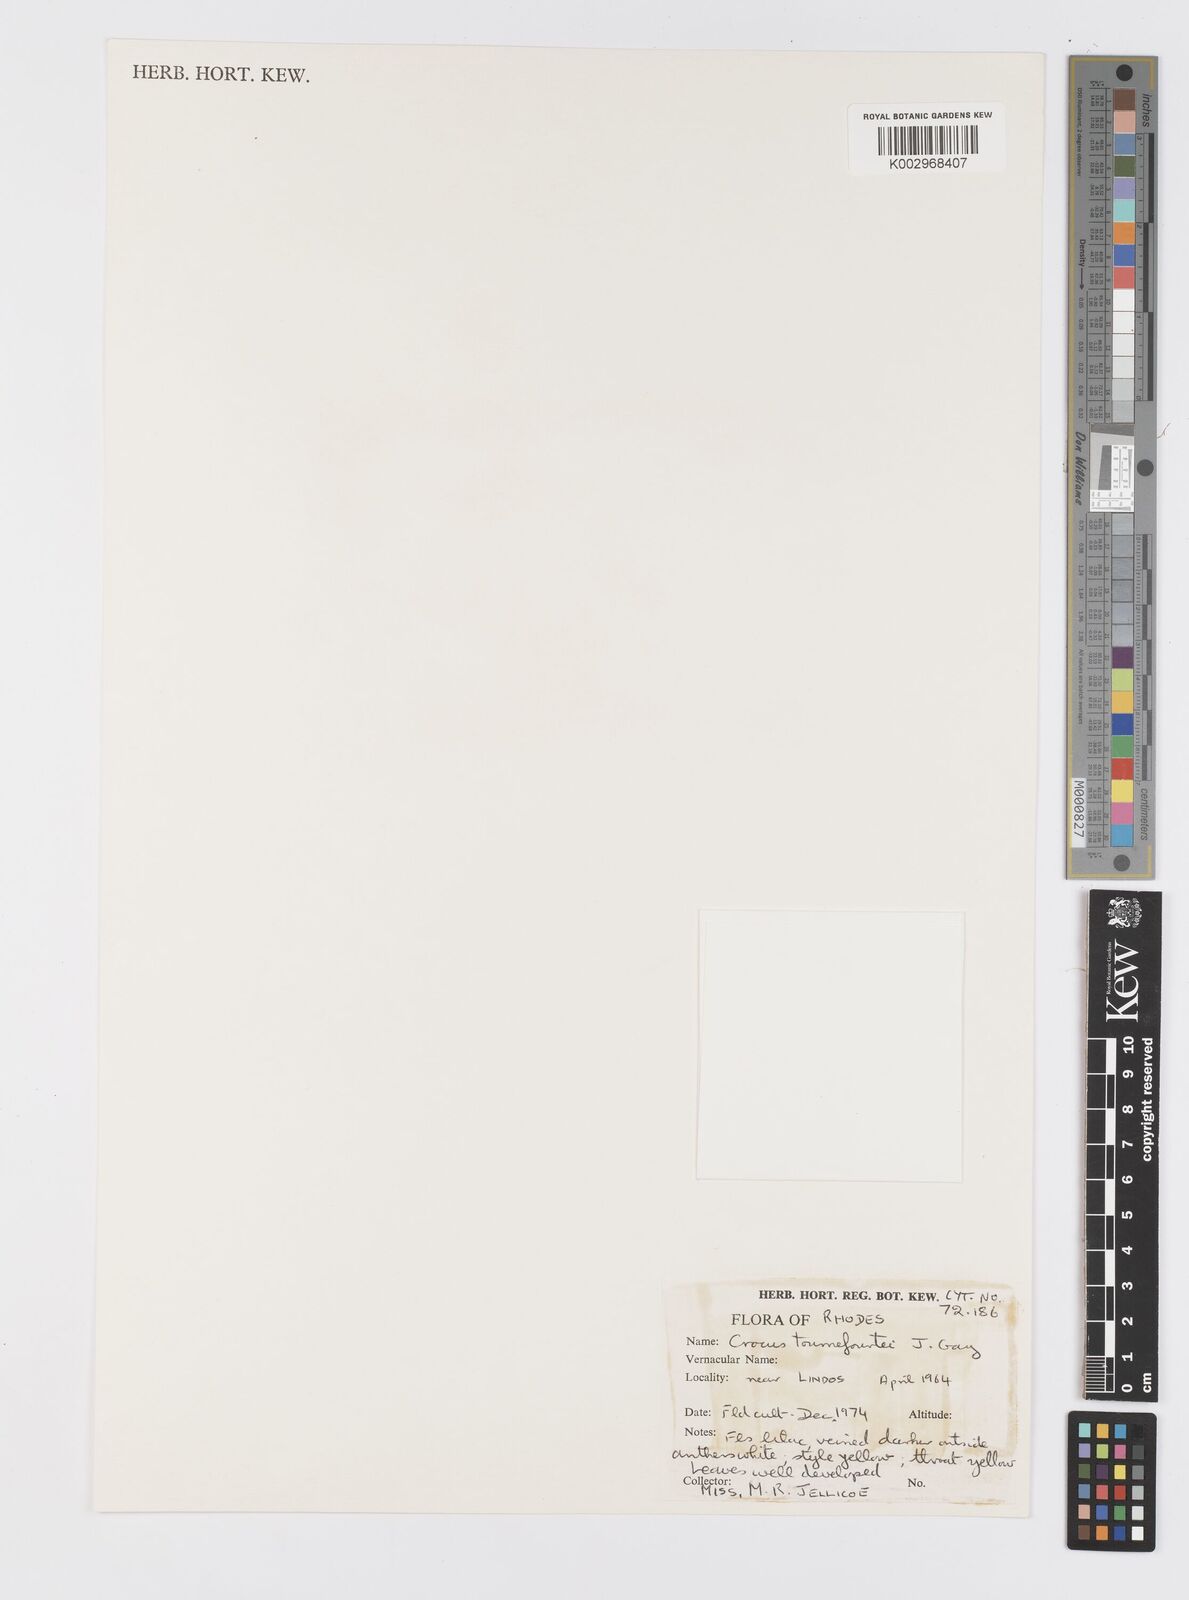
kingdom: Plantae
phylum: Tracheophyta
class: Liliopsida
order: Asparagales
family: Iridaceae
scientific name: Iridaceae
